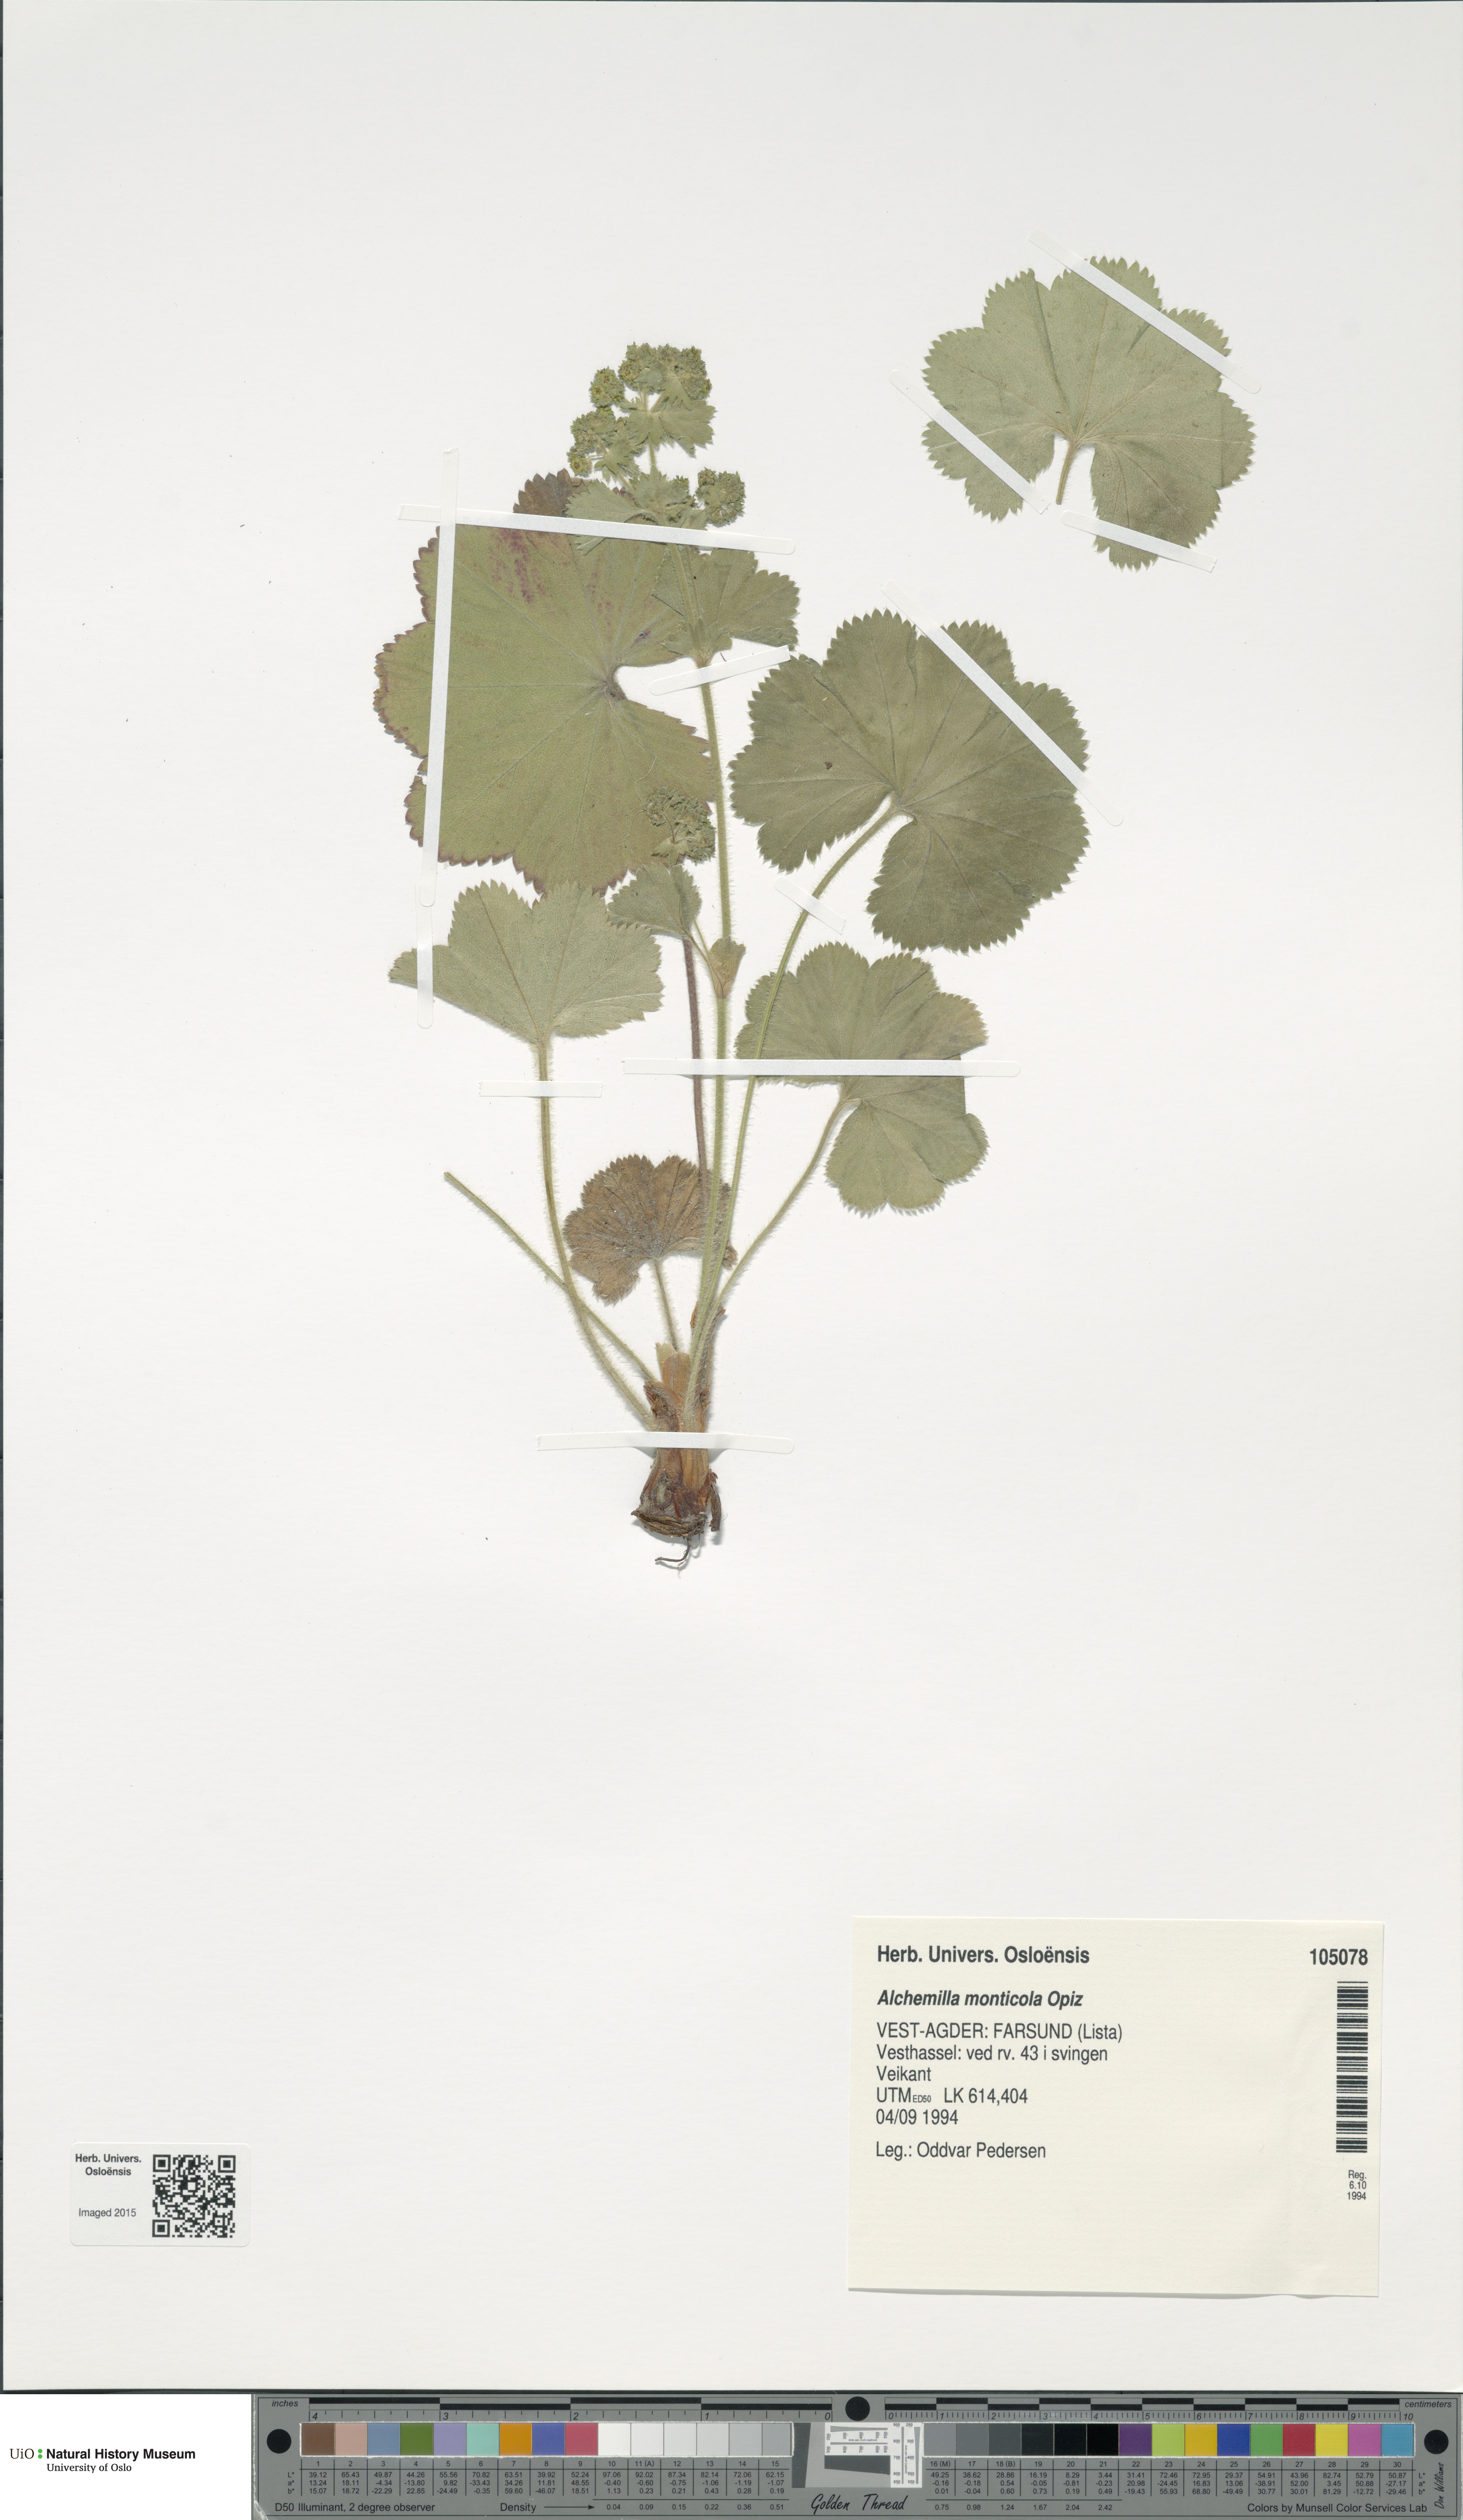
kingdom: Plantae
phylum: Tracheophyta
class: Magnoliopsida
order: Rosales
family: Rosaceae
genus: Alchemilla
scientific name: Alchemilla monticola
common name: Hairy lady's mantle
